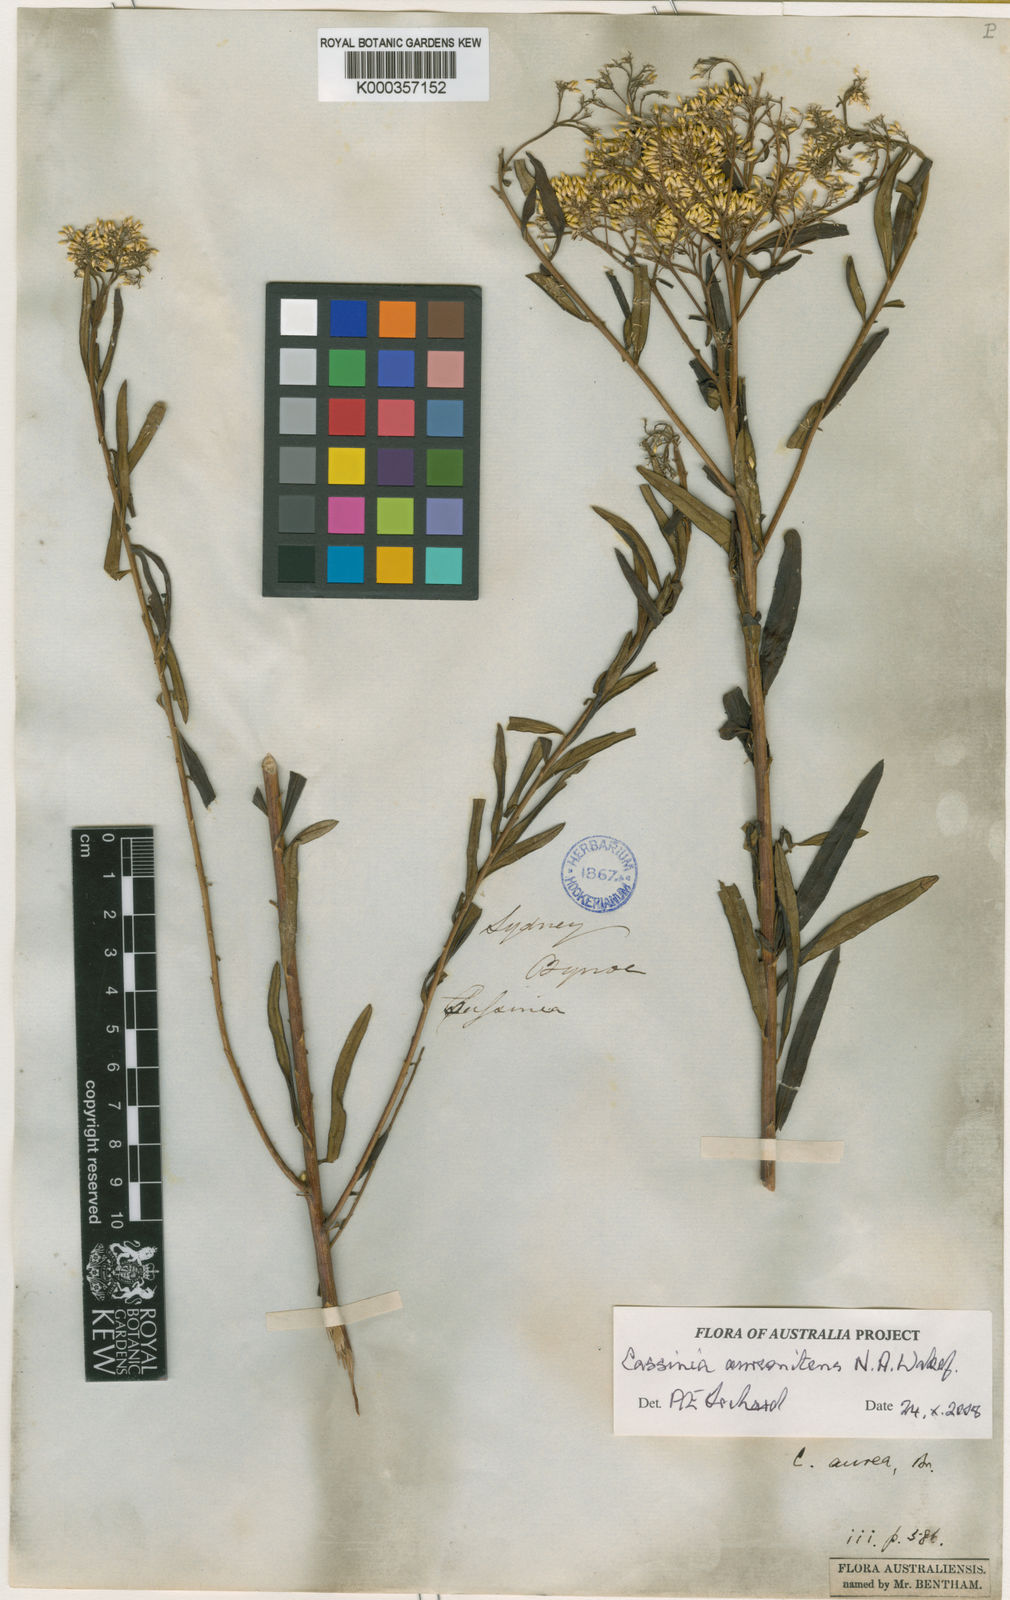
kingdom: Plantae
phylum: Tracheophyta
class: Magnoliopsida
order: Asterales
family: Asteraceae
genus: Cassinia
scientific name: Cassinia aureonitens
